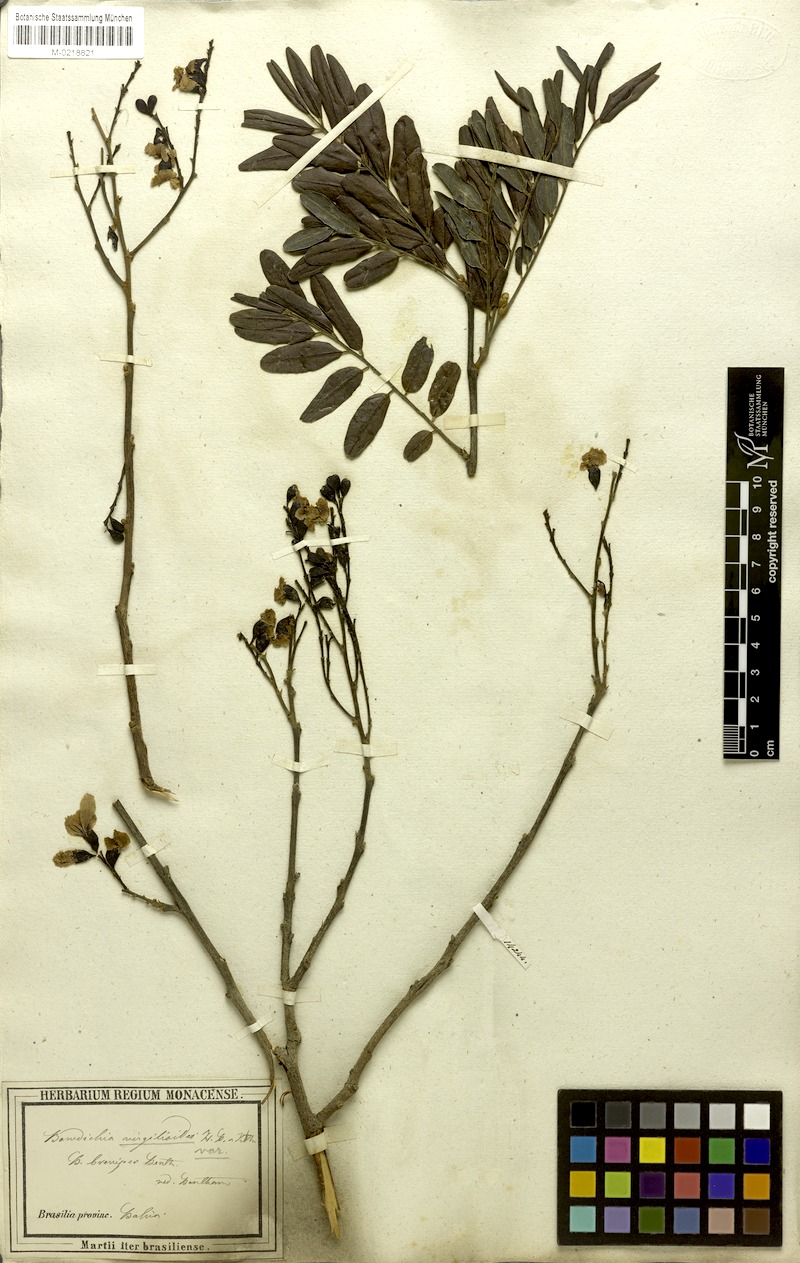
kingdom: Plantae
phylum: Tracheophyta
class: Magnoliopsida
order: Fabales
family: Fabaceae
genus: Bowdichia
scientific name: Bowdichia virgilioides
